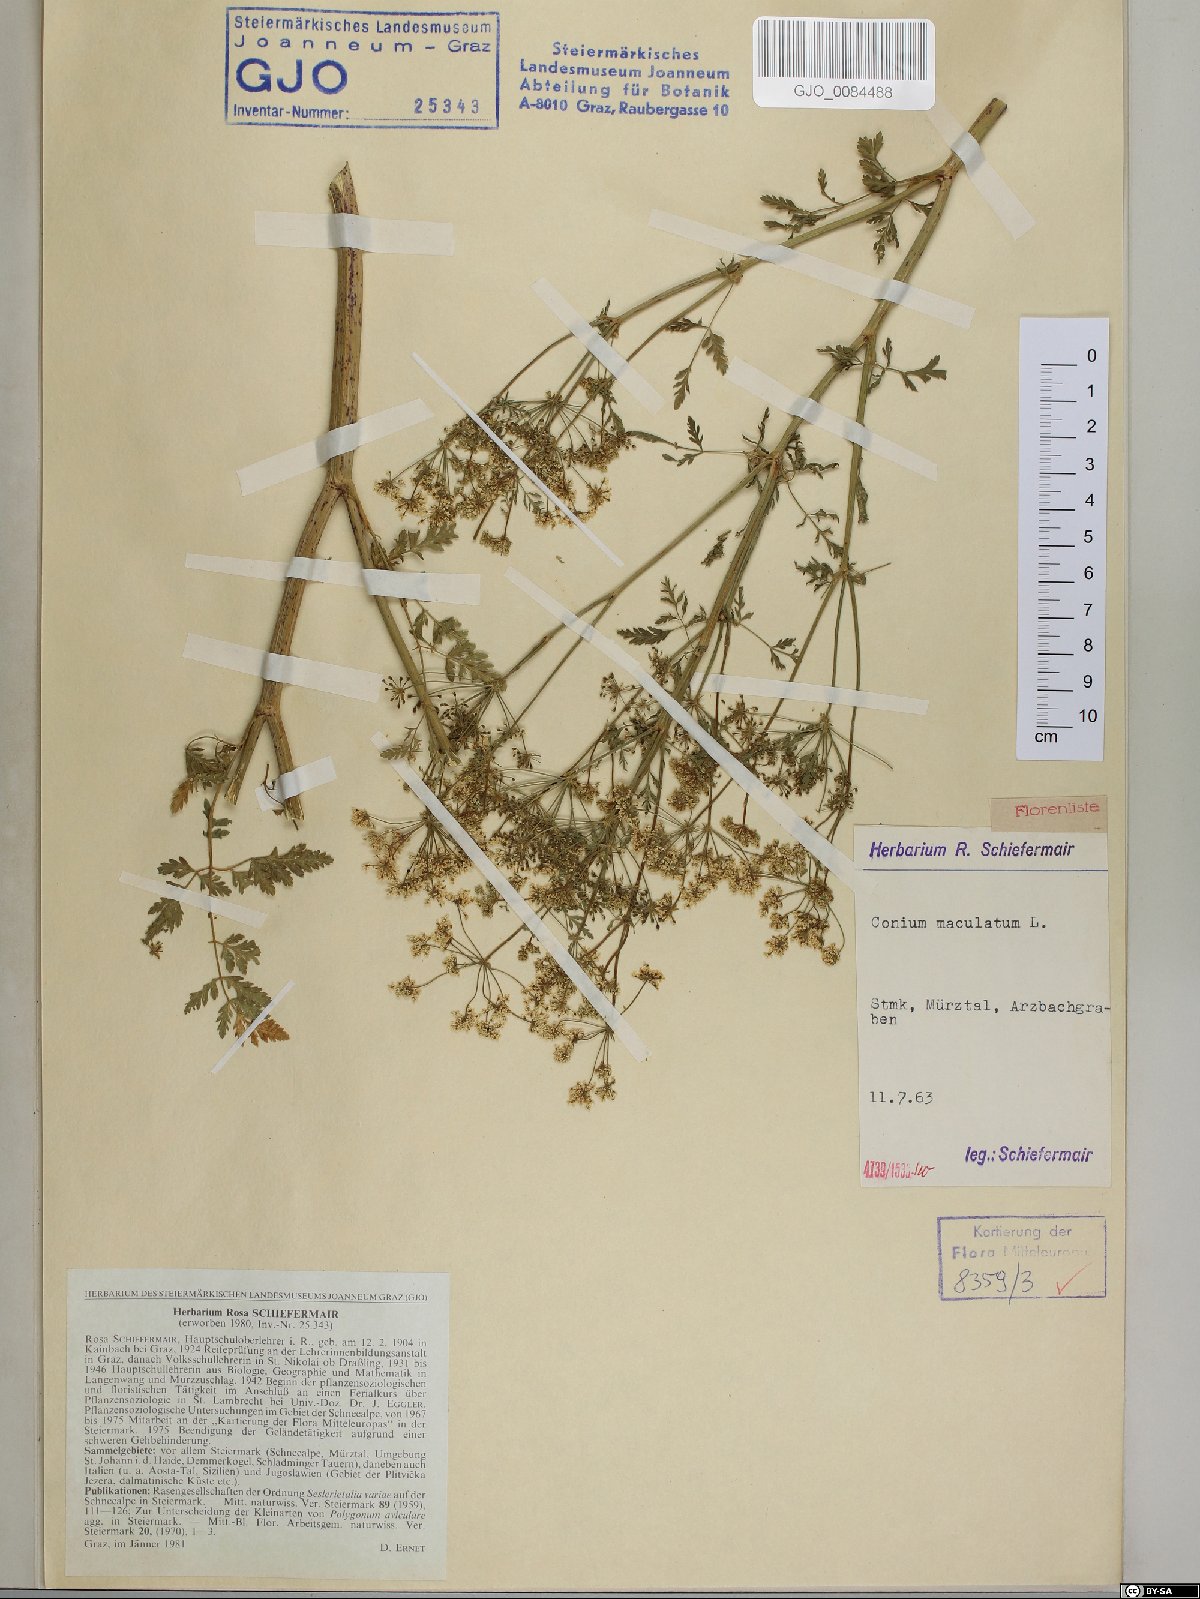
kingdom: Plantae
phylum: Tracheophyta
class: Magnoliopsida
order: Apiales
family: Apiaceae
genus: Conium
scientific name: Conium maculatum
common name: Hemlock
